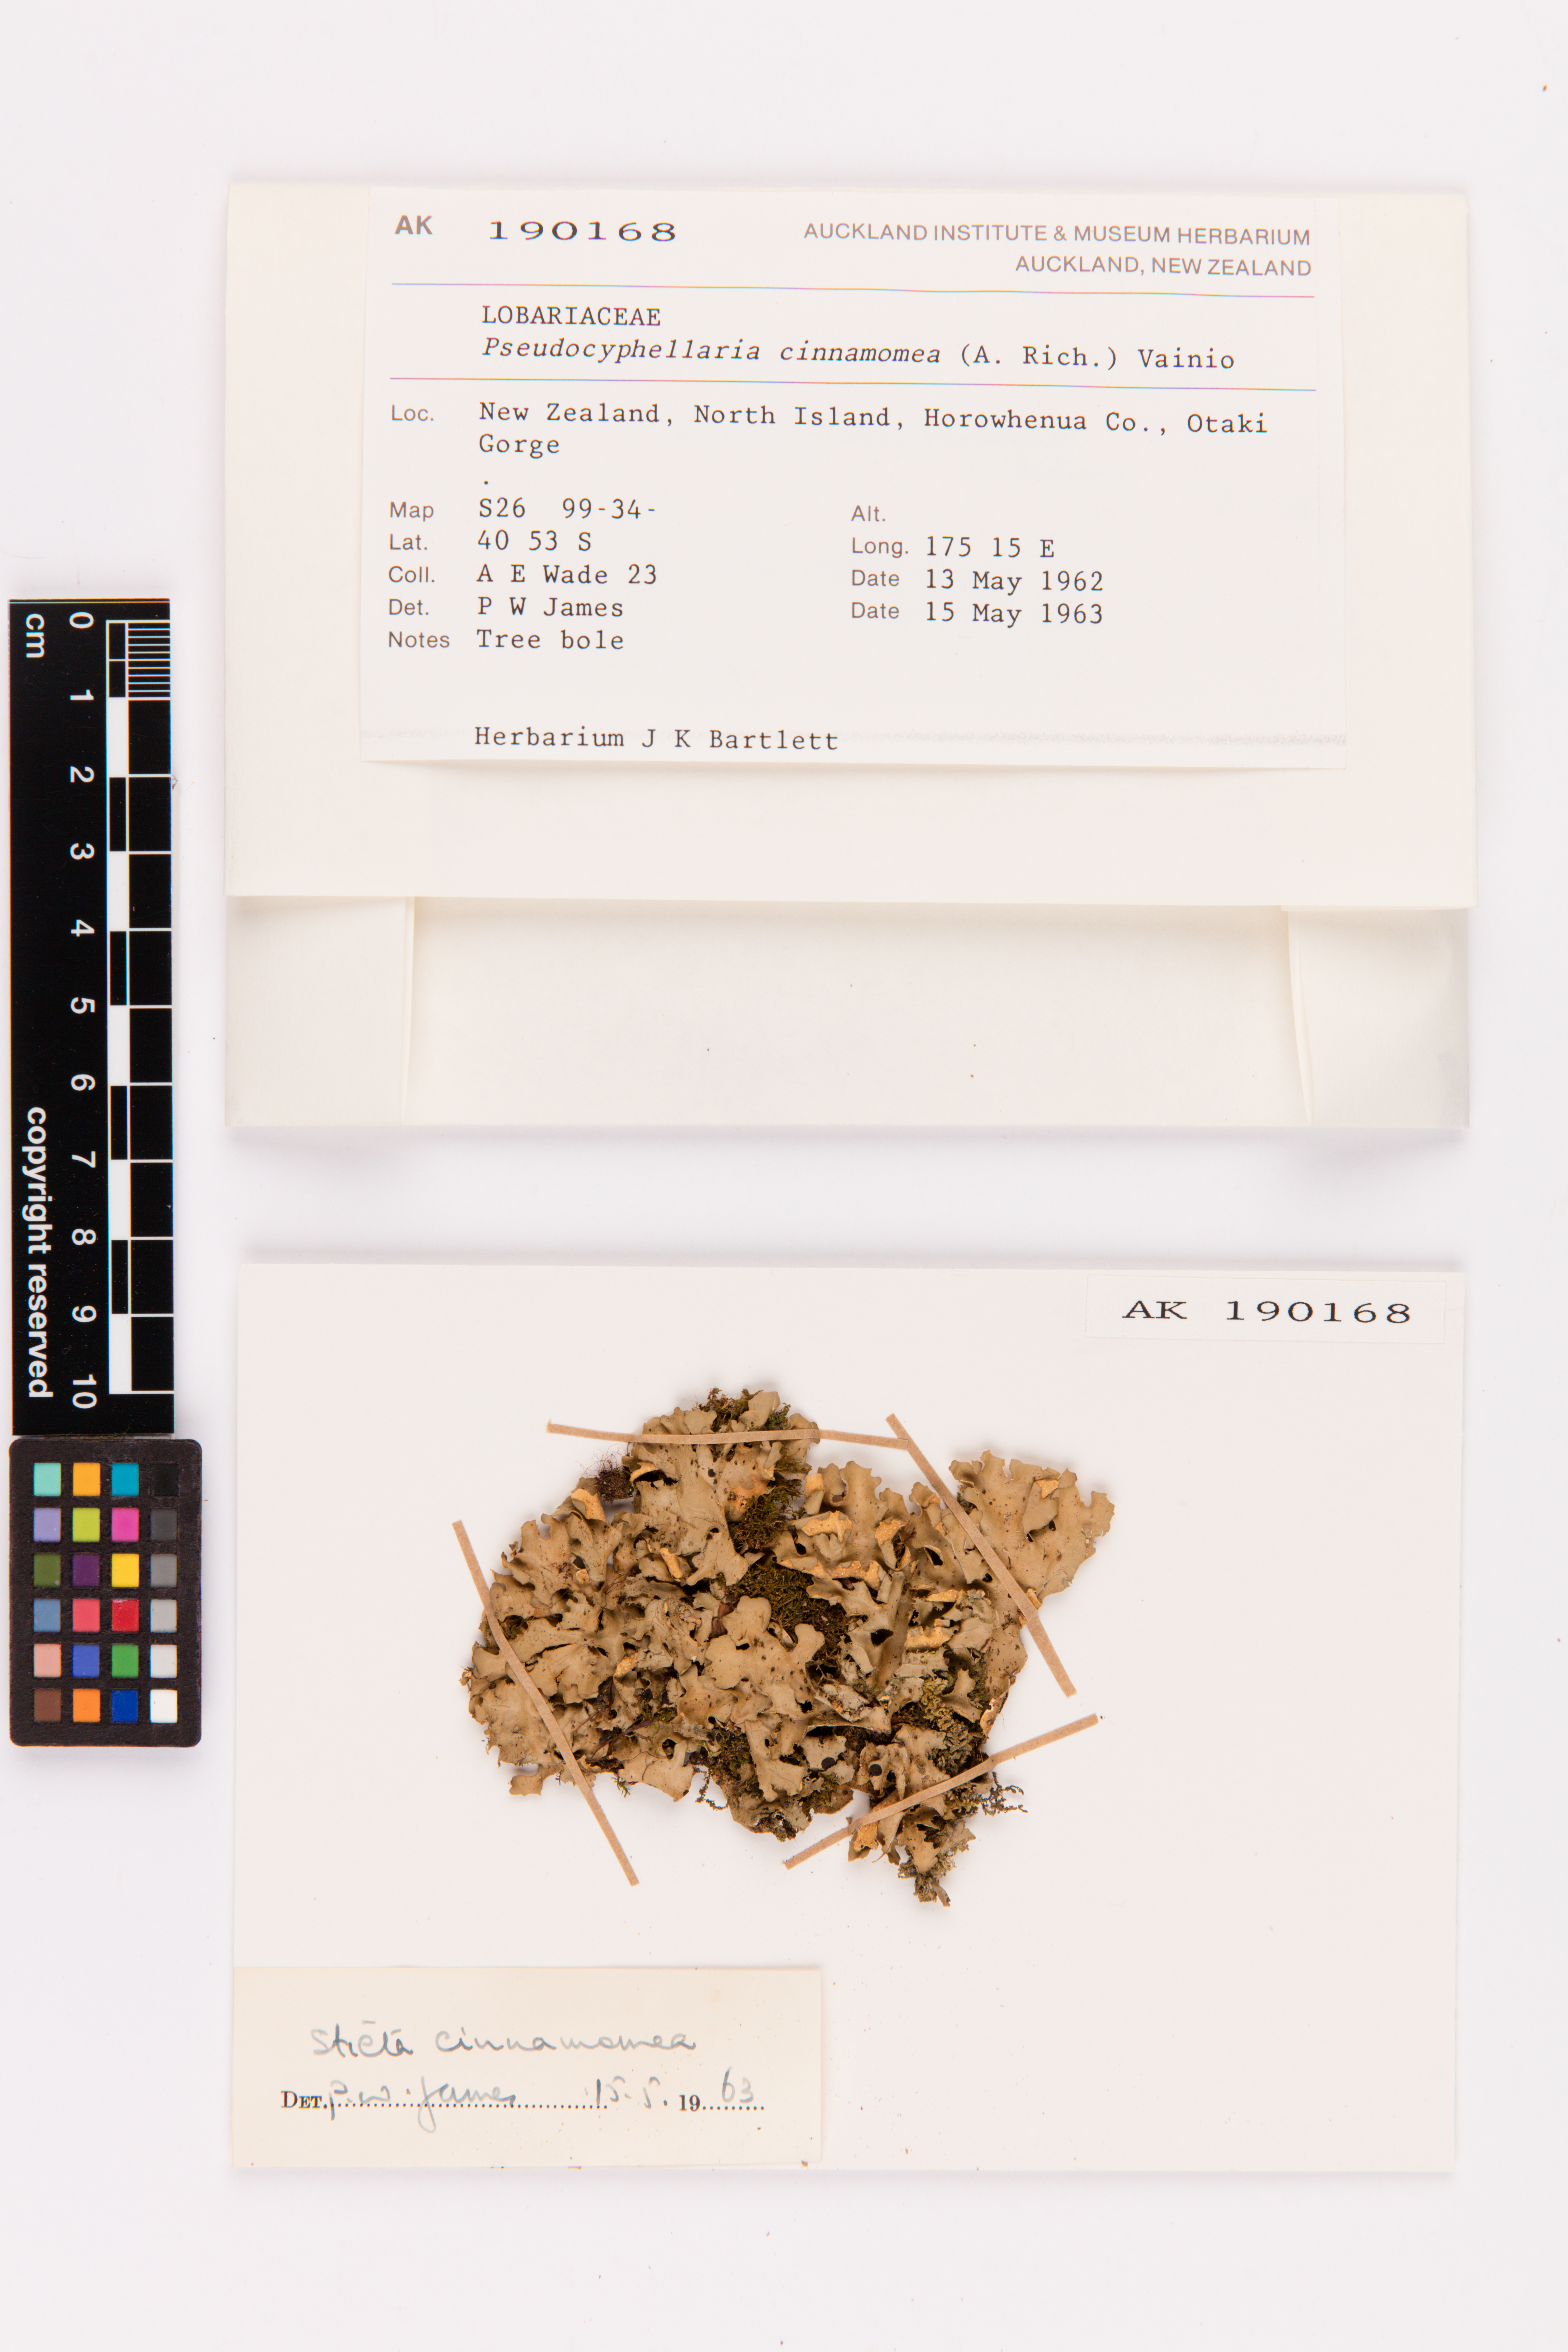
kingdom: Fungi
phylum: Ascomycota
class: Lecanoromycetes
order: Peltigerales
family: Lobariaceae
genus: Pseudocyphellaria
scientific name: Pseudocyphellaria cinnamomea
